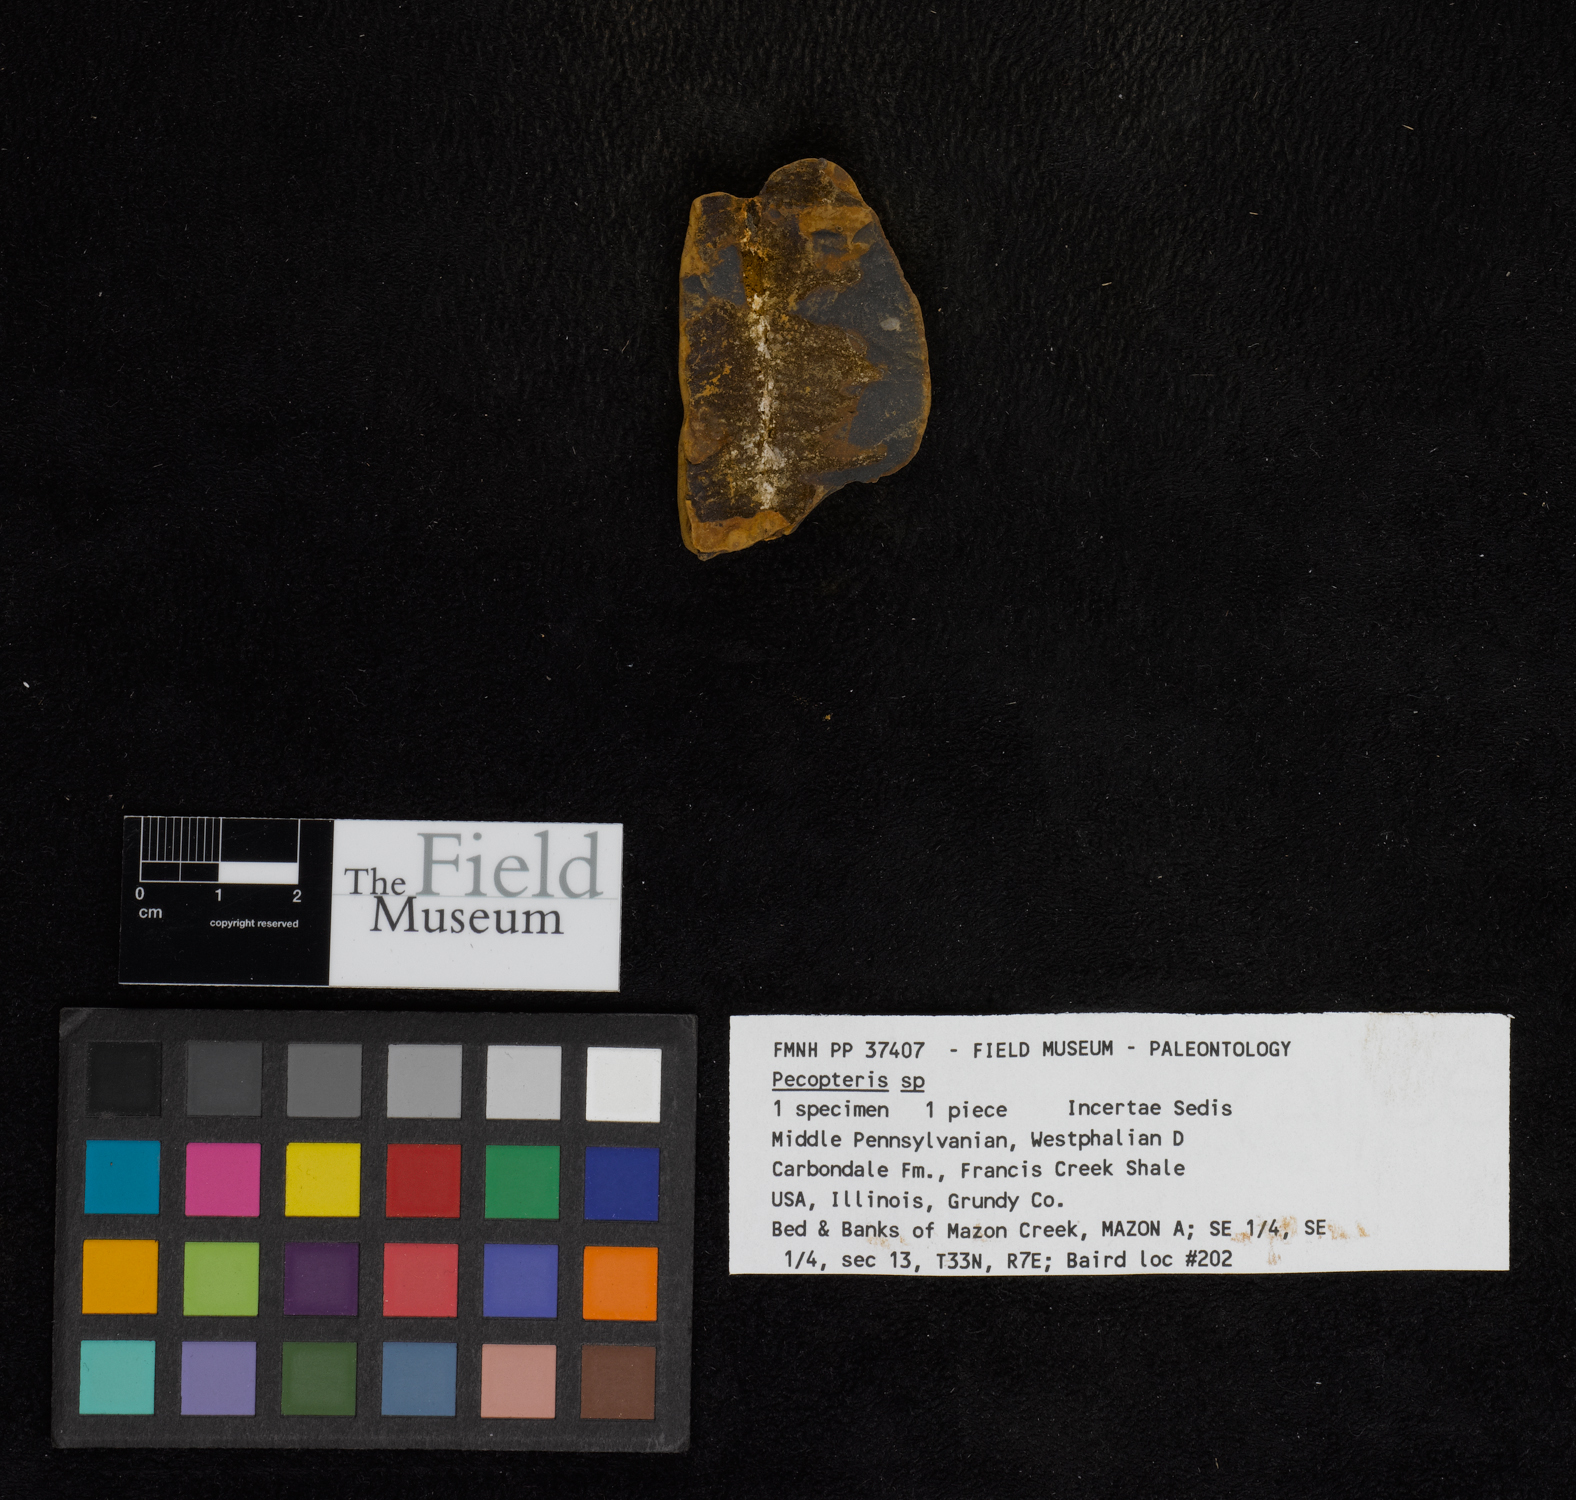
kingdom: Plantae
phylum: Tracheophyta
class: Polypodiopsida
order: Marattiales
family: Asterothecaceae
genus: Pecopteris
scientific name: Pecopteris
